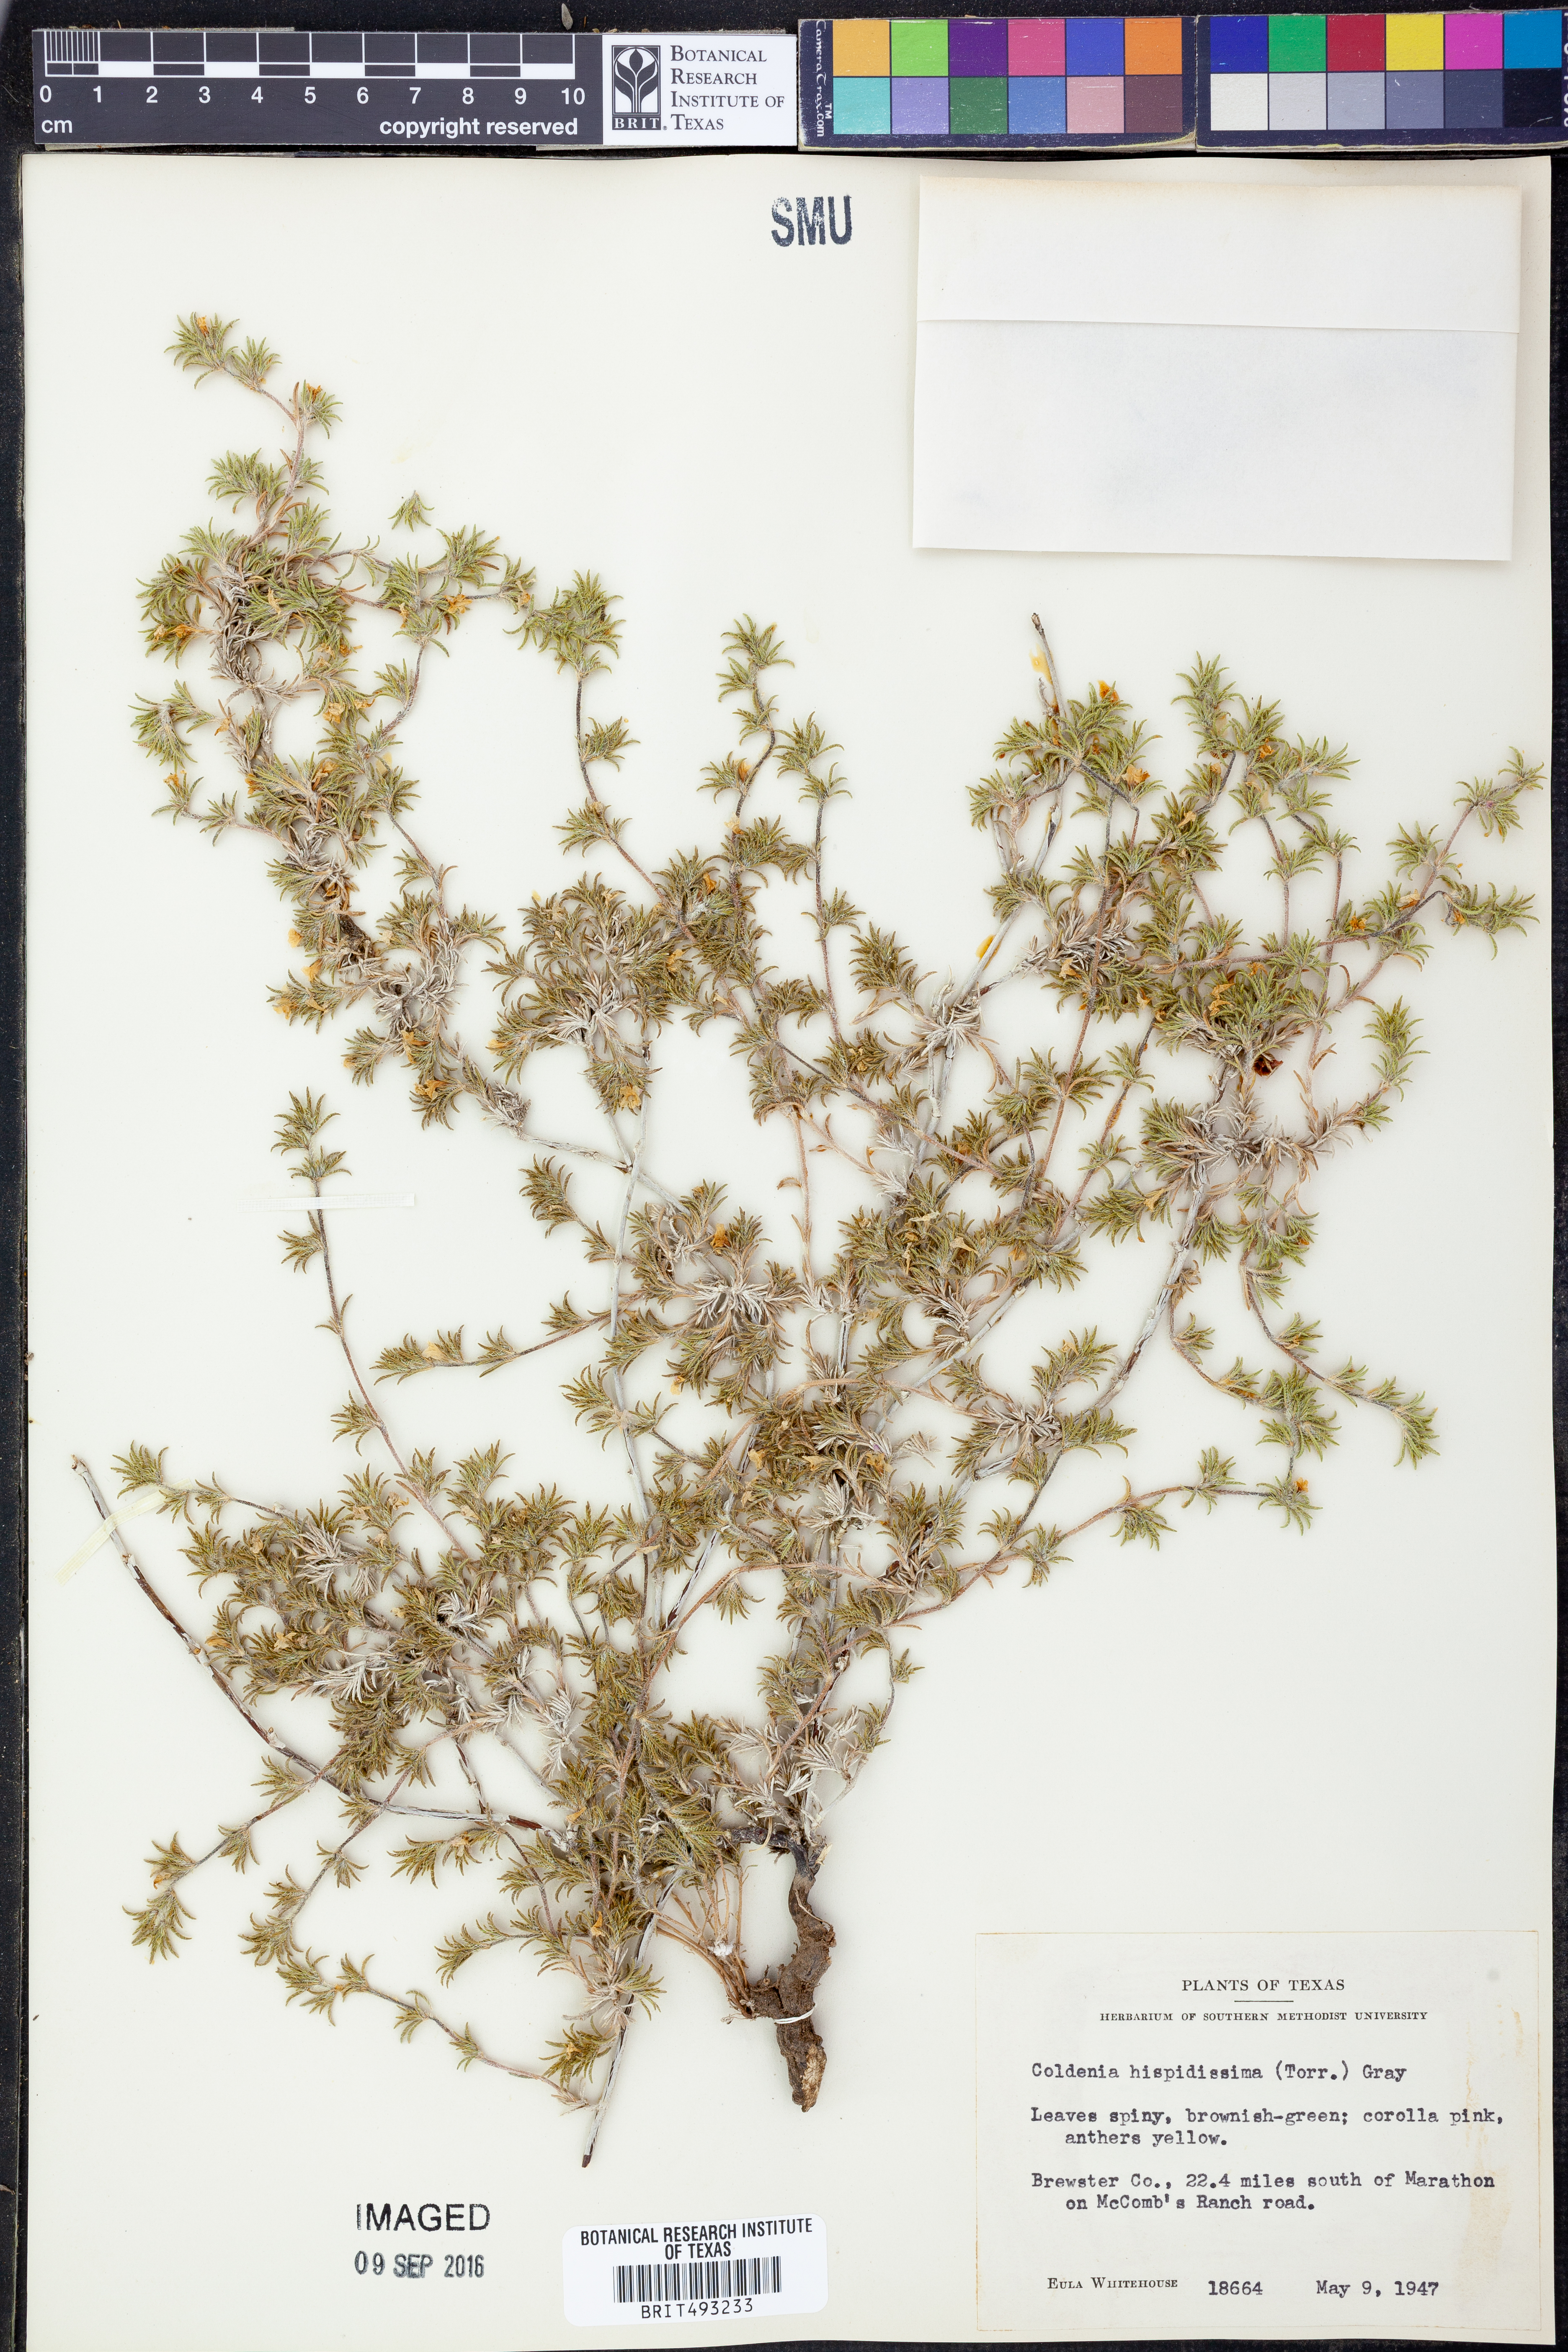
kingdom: Plantae
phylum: Tracheophyta
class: Magnoliopsida
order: Boraginales
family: Ehretiaceae
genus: Tiquilia
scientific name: Tiquilia hispidissima
